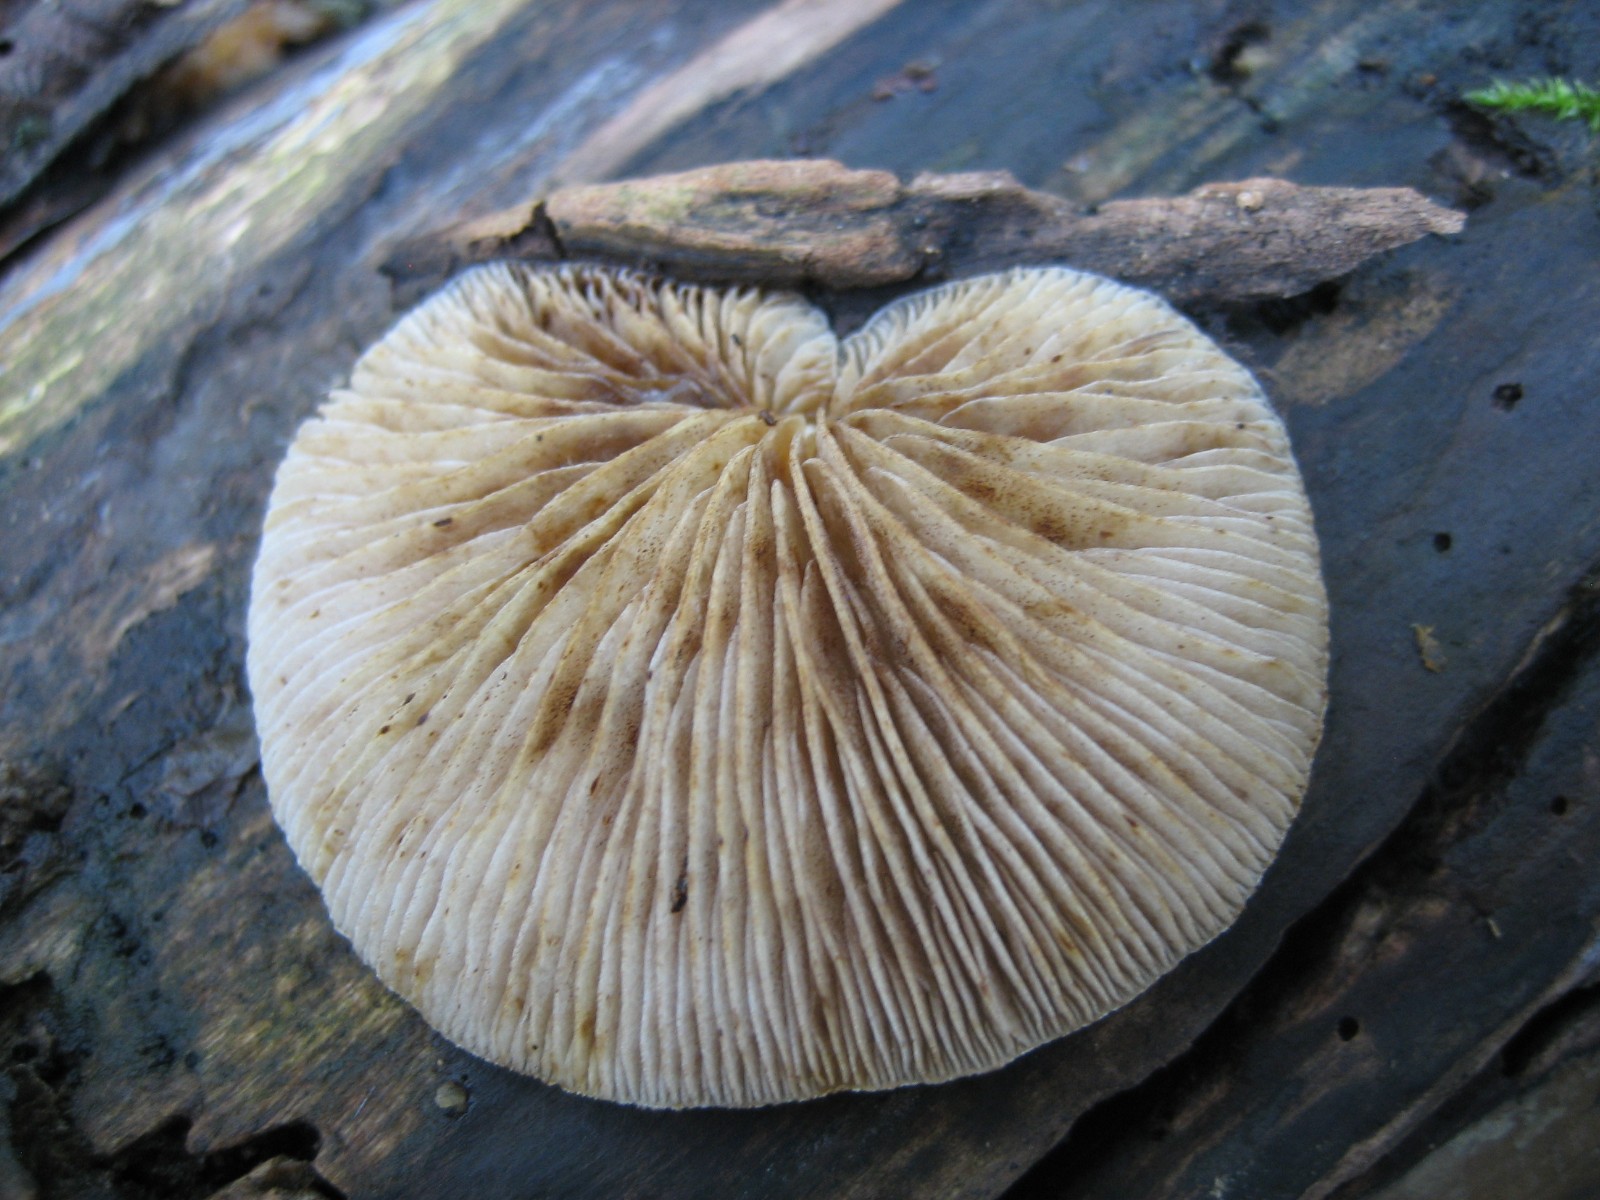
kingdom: Fungi
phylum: Basidiomycota
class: Agaricomycetes
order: Agaricales
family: Crepidotaceae
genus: Crepidotus
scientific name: Crepidotus mollis
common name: blød muslingesvamp
